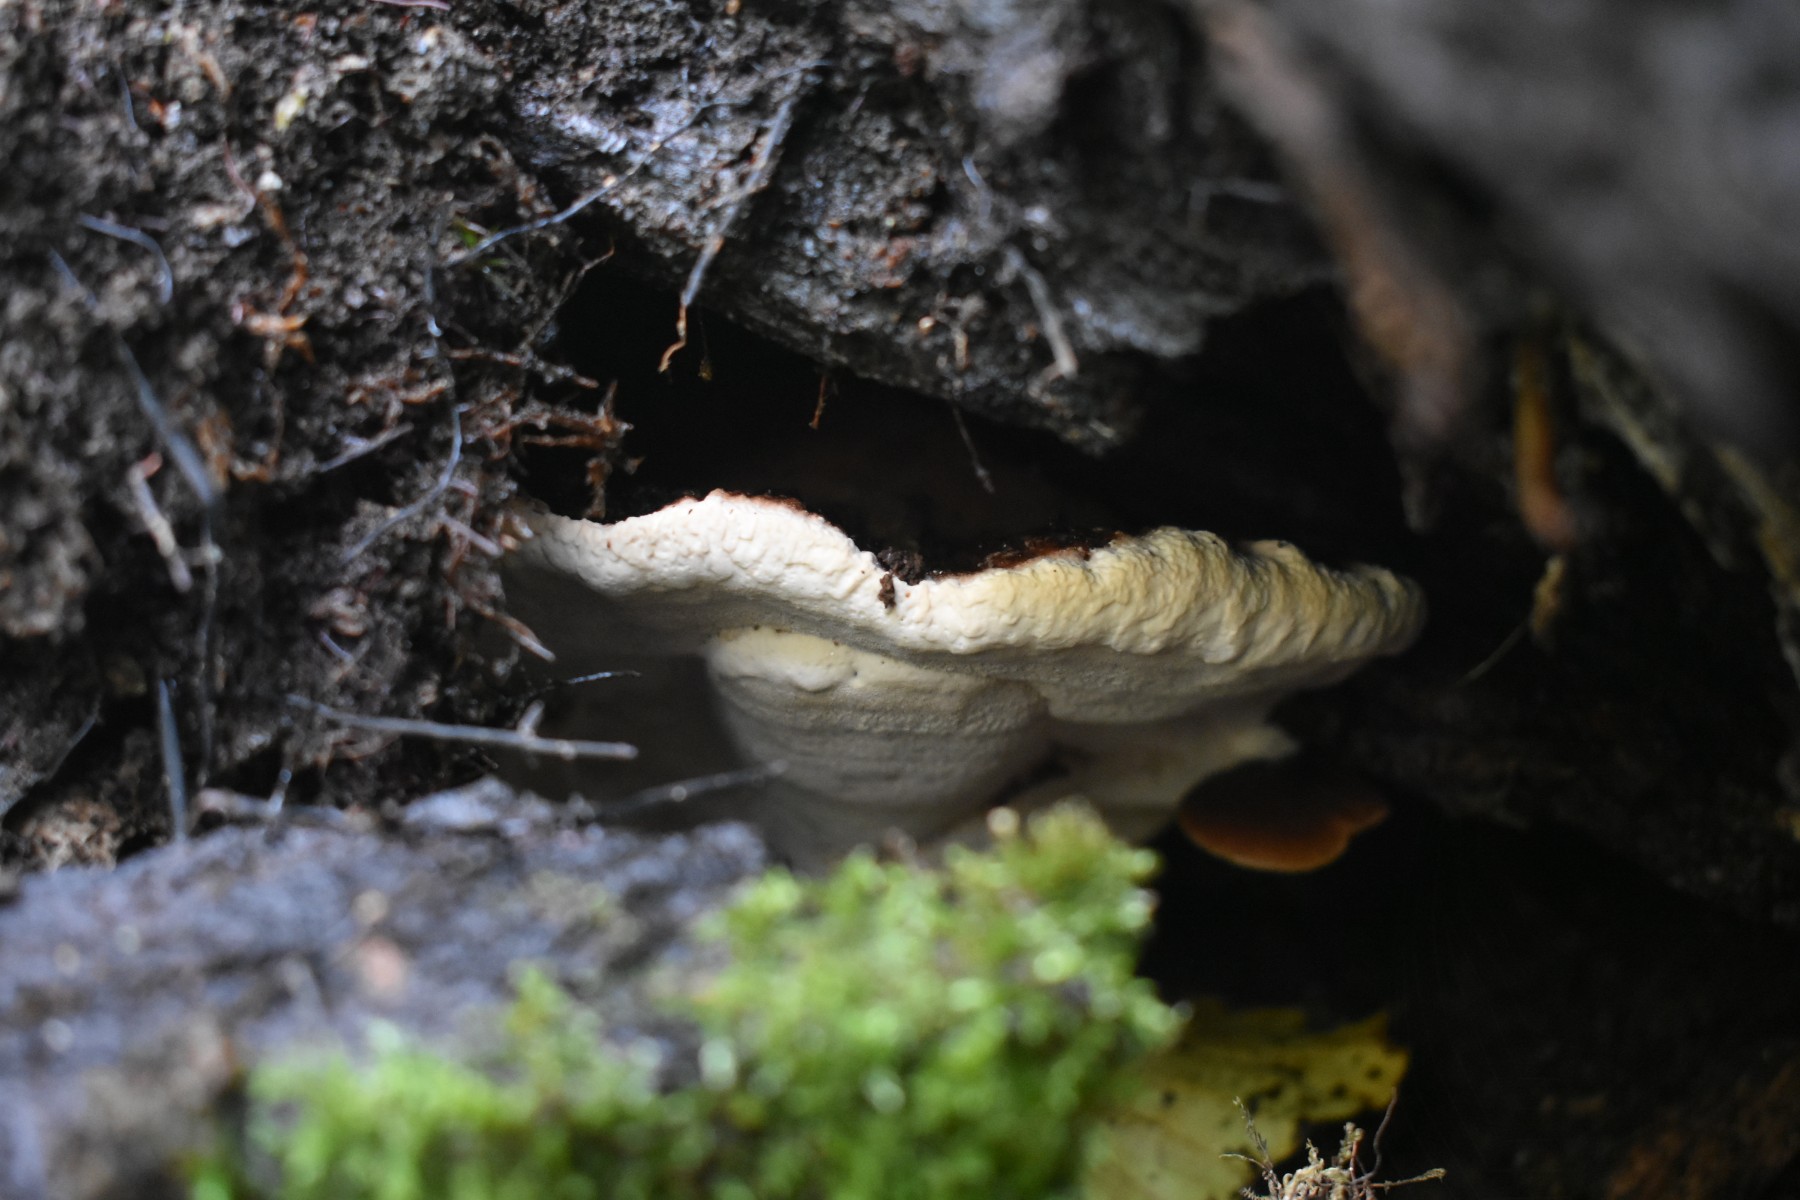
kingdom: Fungi
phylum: Basidiomycota
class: Agaricomycetes
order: Polyporales
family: Ischnodermataceae
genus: Ischnoderma
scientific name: Ischnoderma resinosum
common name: løv-tjæreporesvamp
